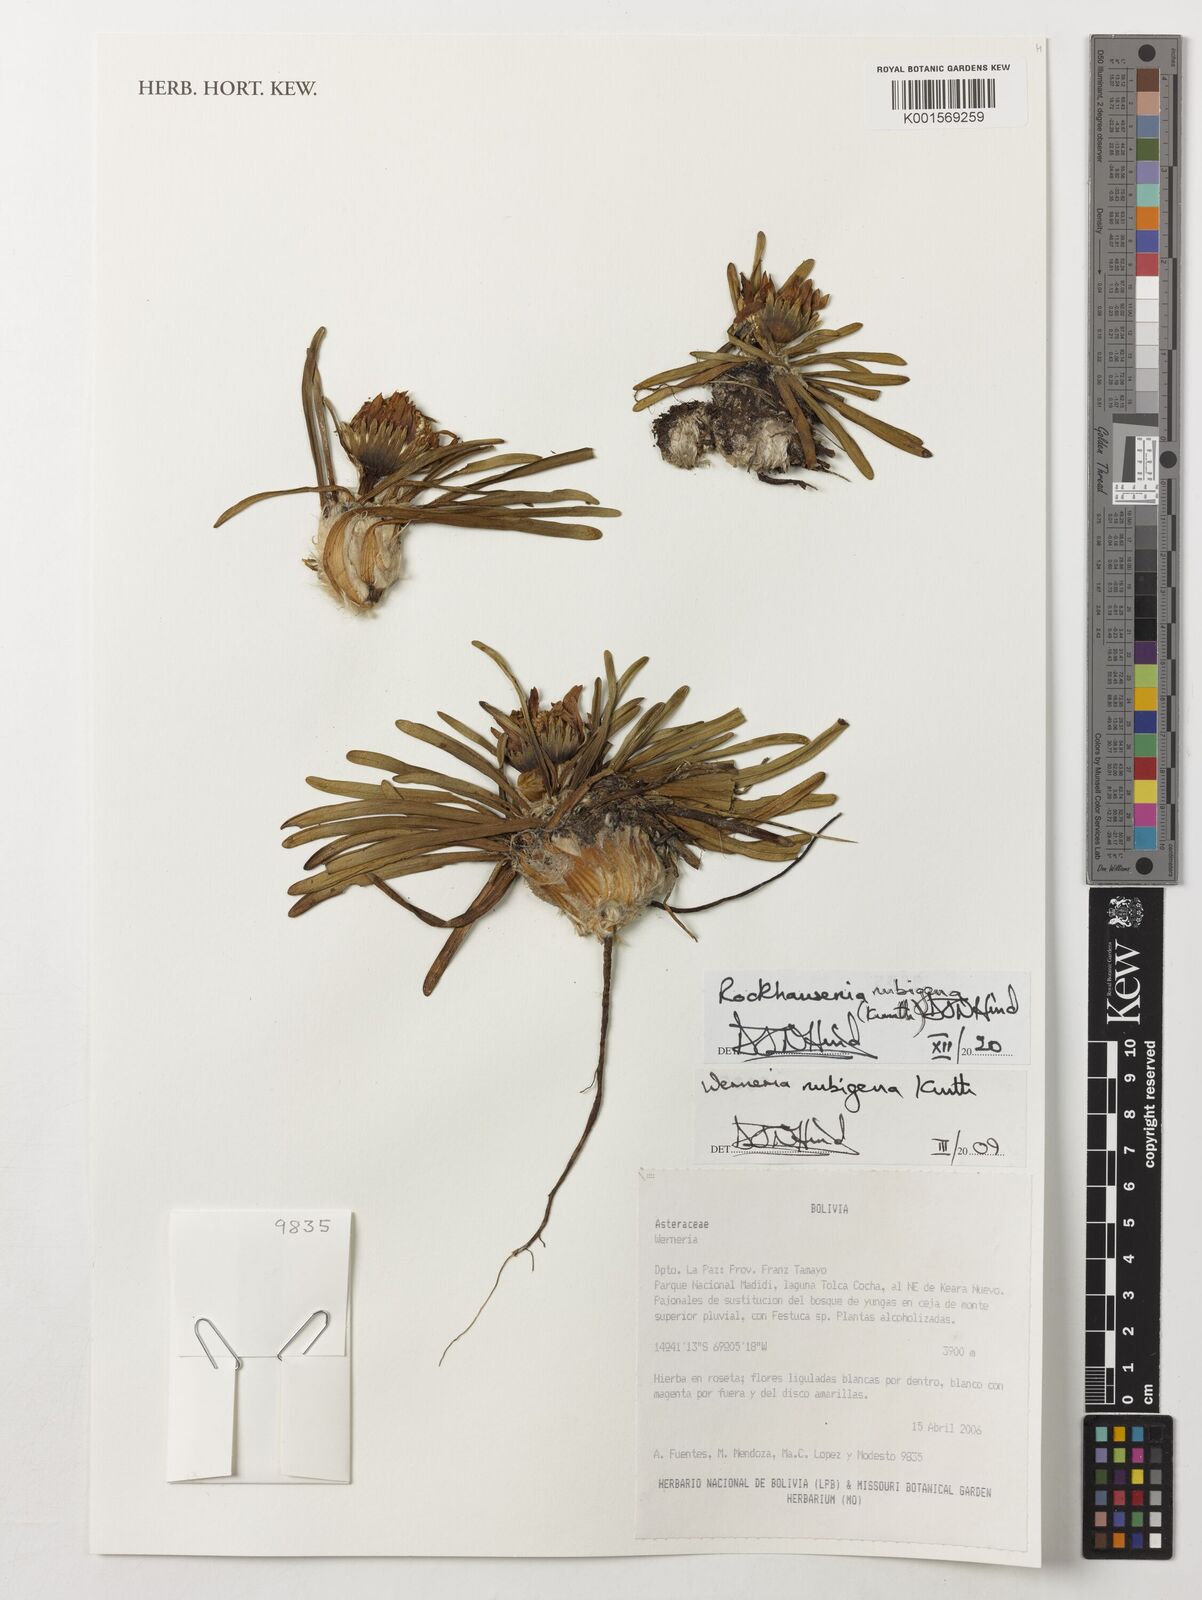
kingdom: Plantae
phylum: Tracheophyta
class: Magnoliopsida
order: Asterales
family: Asteraceae
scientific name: Asteraceae
